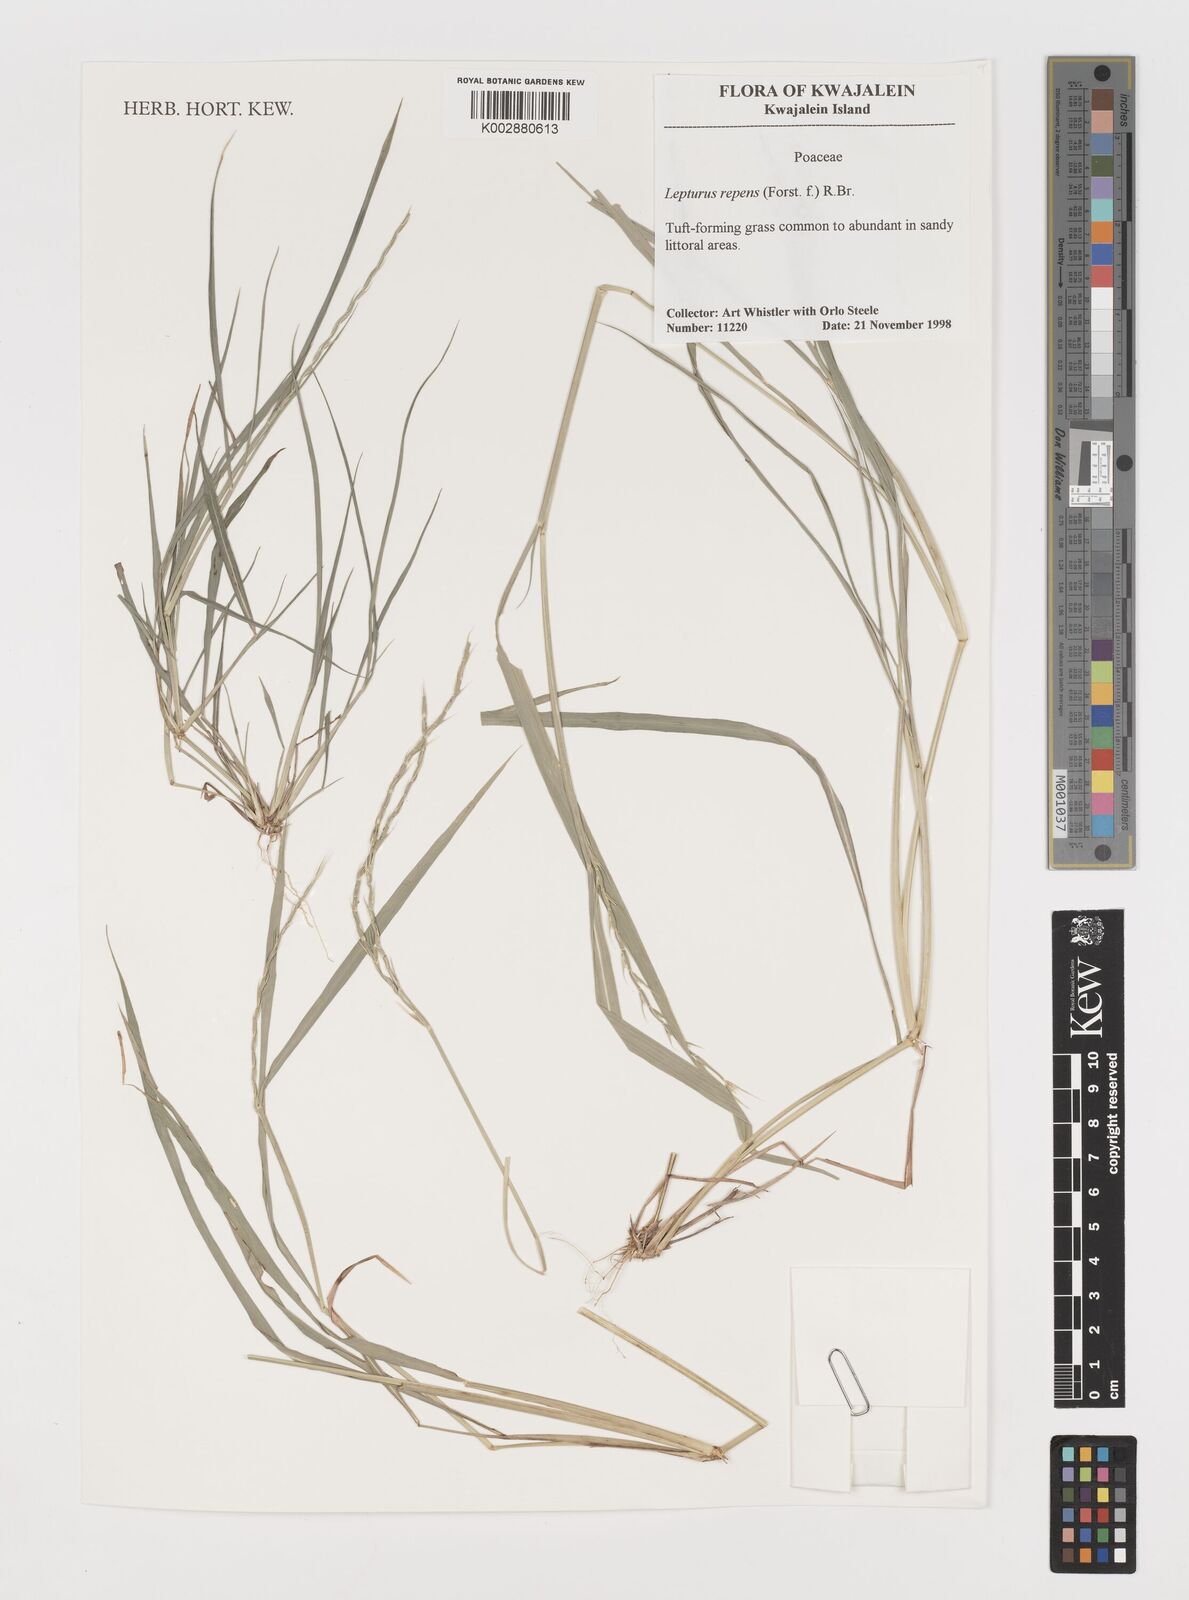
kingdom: Plantae
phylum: Tracheophyta
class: Liliopsida
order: Poales
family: Poaceae
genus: Lepturus
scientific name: Lepturus repens
